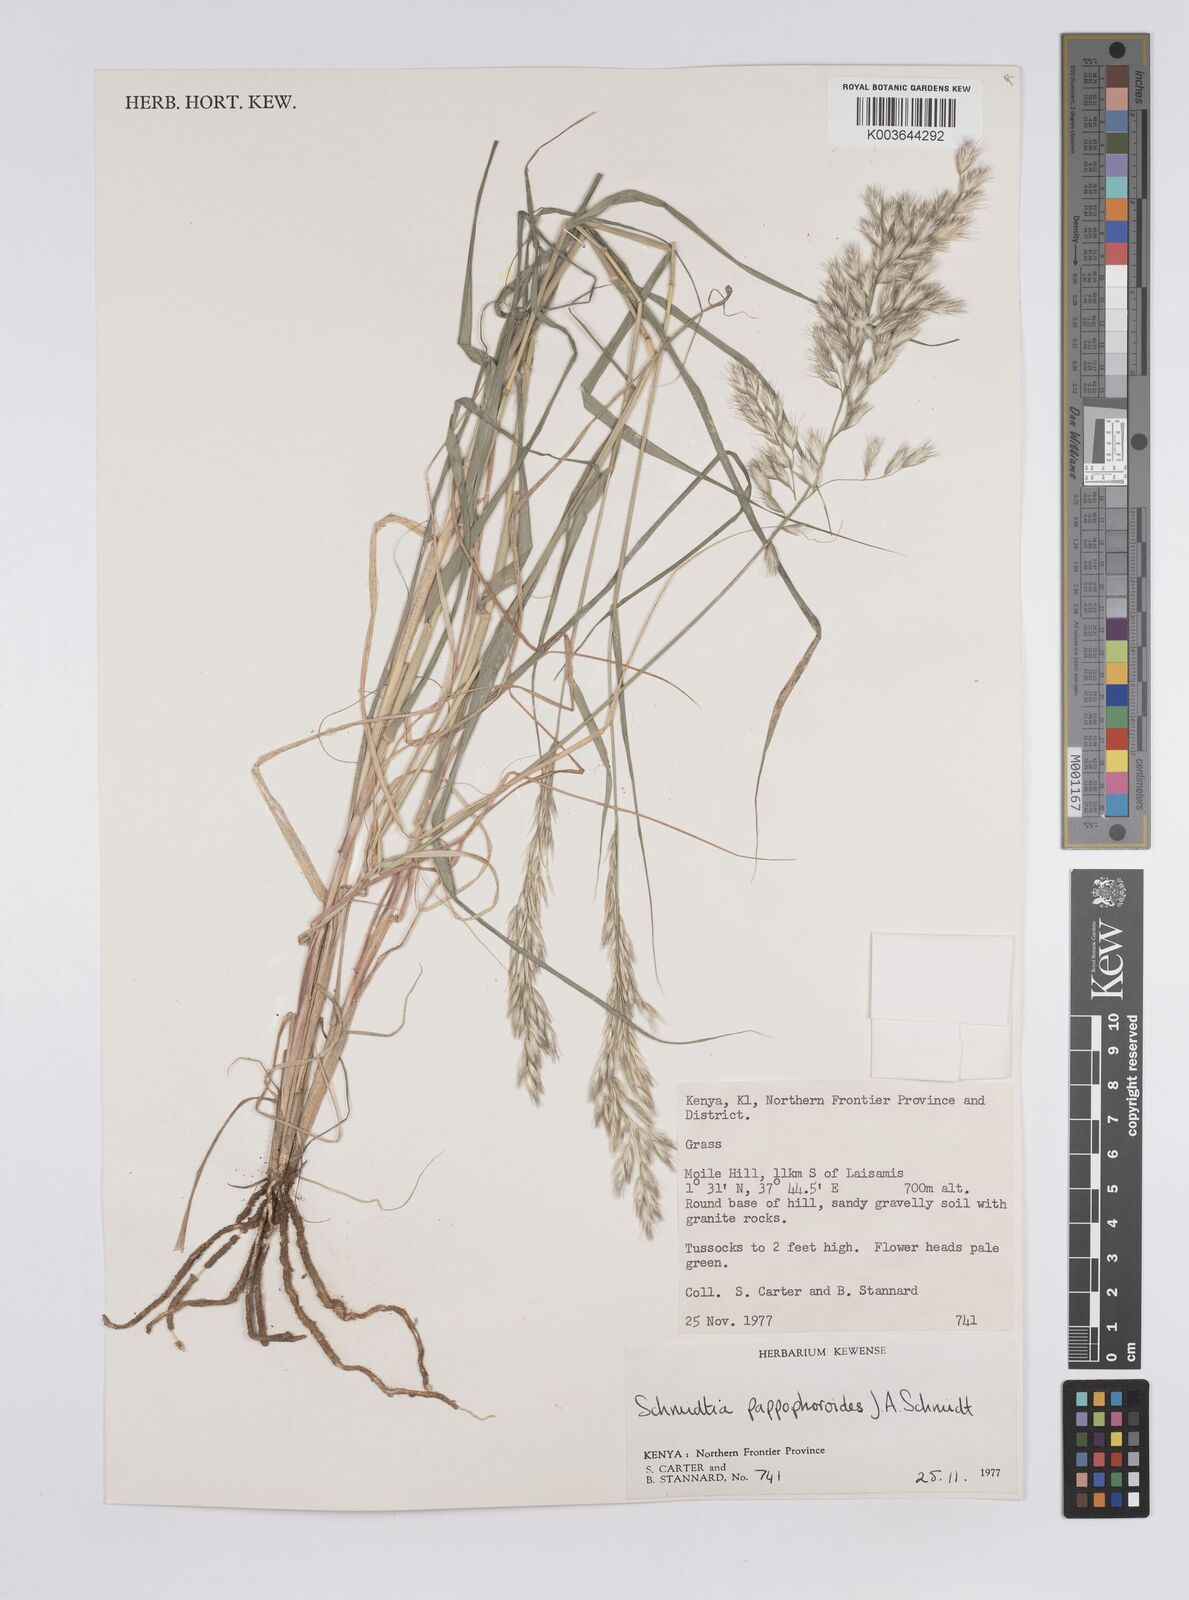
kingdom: Plantae
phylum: Tracheophyta
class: Liliopsida
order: Poales
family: Poaceae
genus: Schmidtia
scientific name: Schmidtia pappophoroides
